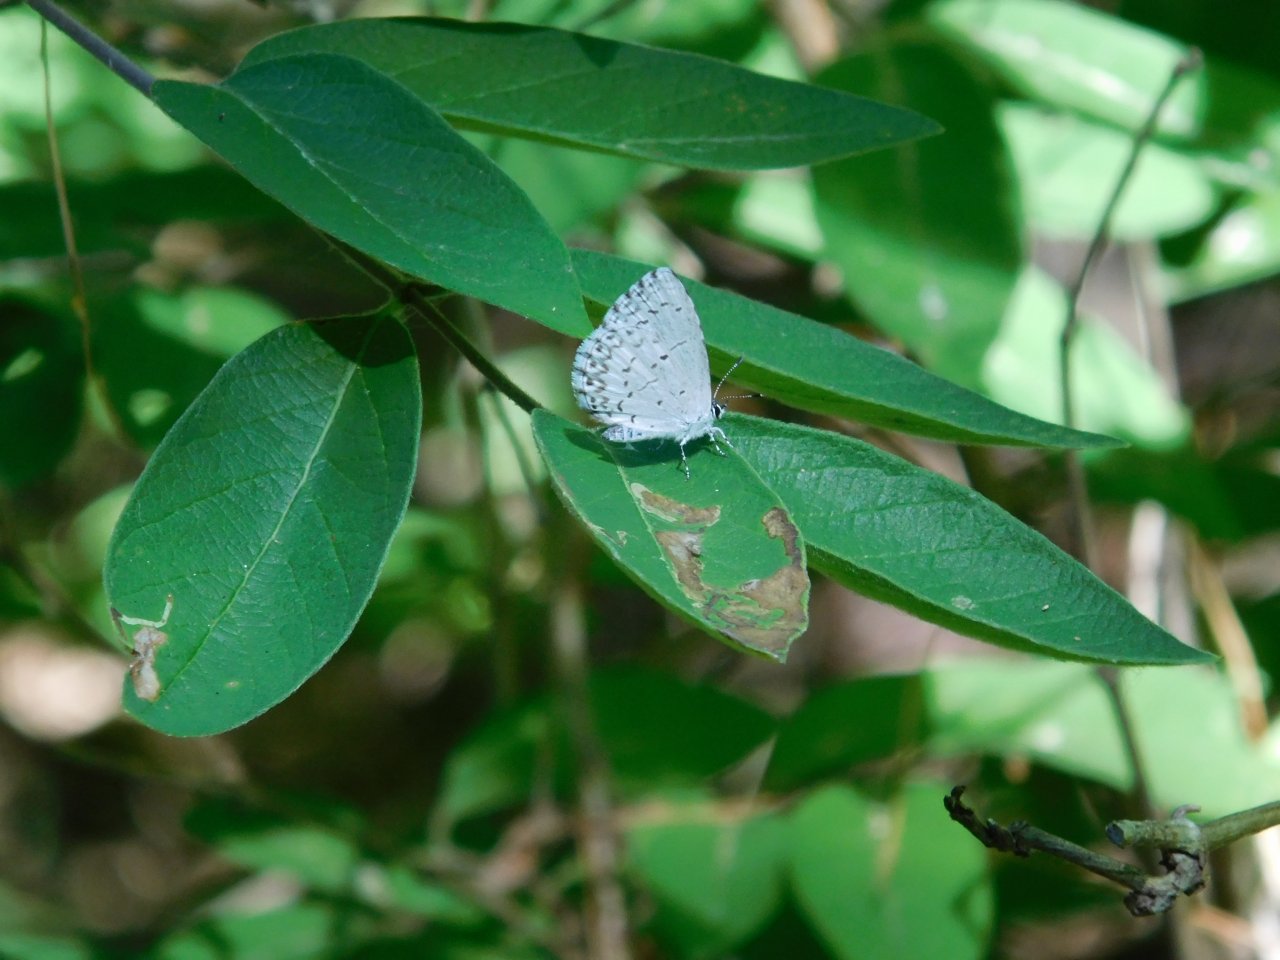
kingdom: Animalia
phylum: Arthropoda
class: Insecta
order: Lepidoptera
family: Lycaenidae
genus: Celastrina
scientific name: Celastrina lucia
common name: Northern Spring Azure
